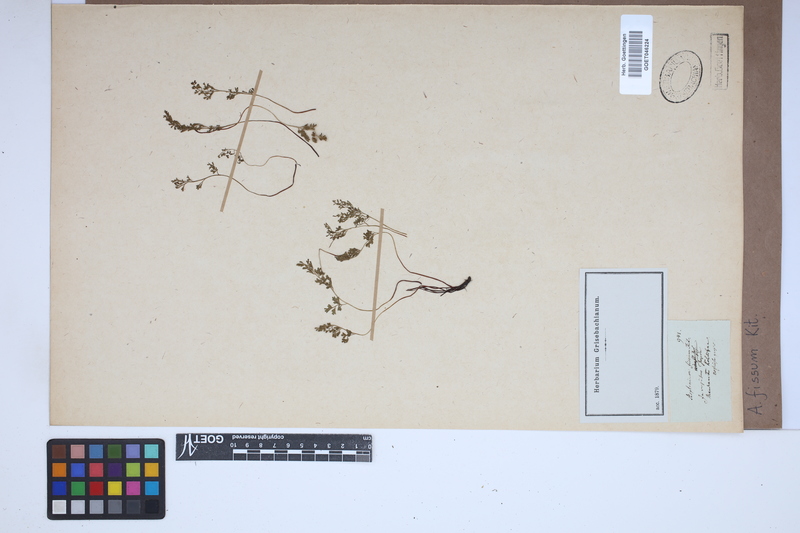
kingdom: Plantae
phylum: Tracheophyta
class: Polypodiopsida
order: Polypodiales
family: Aspleniaceae
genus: Asplenium
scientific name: Asplenium fissum
